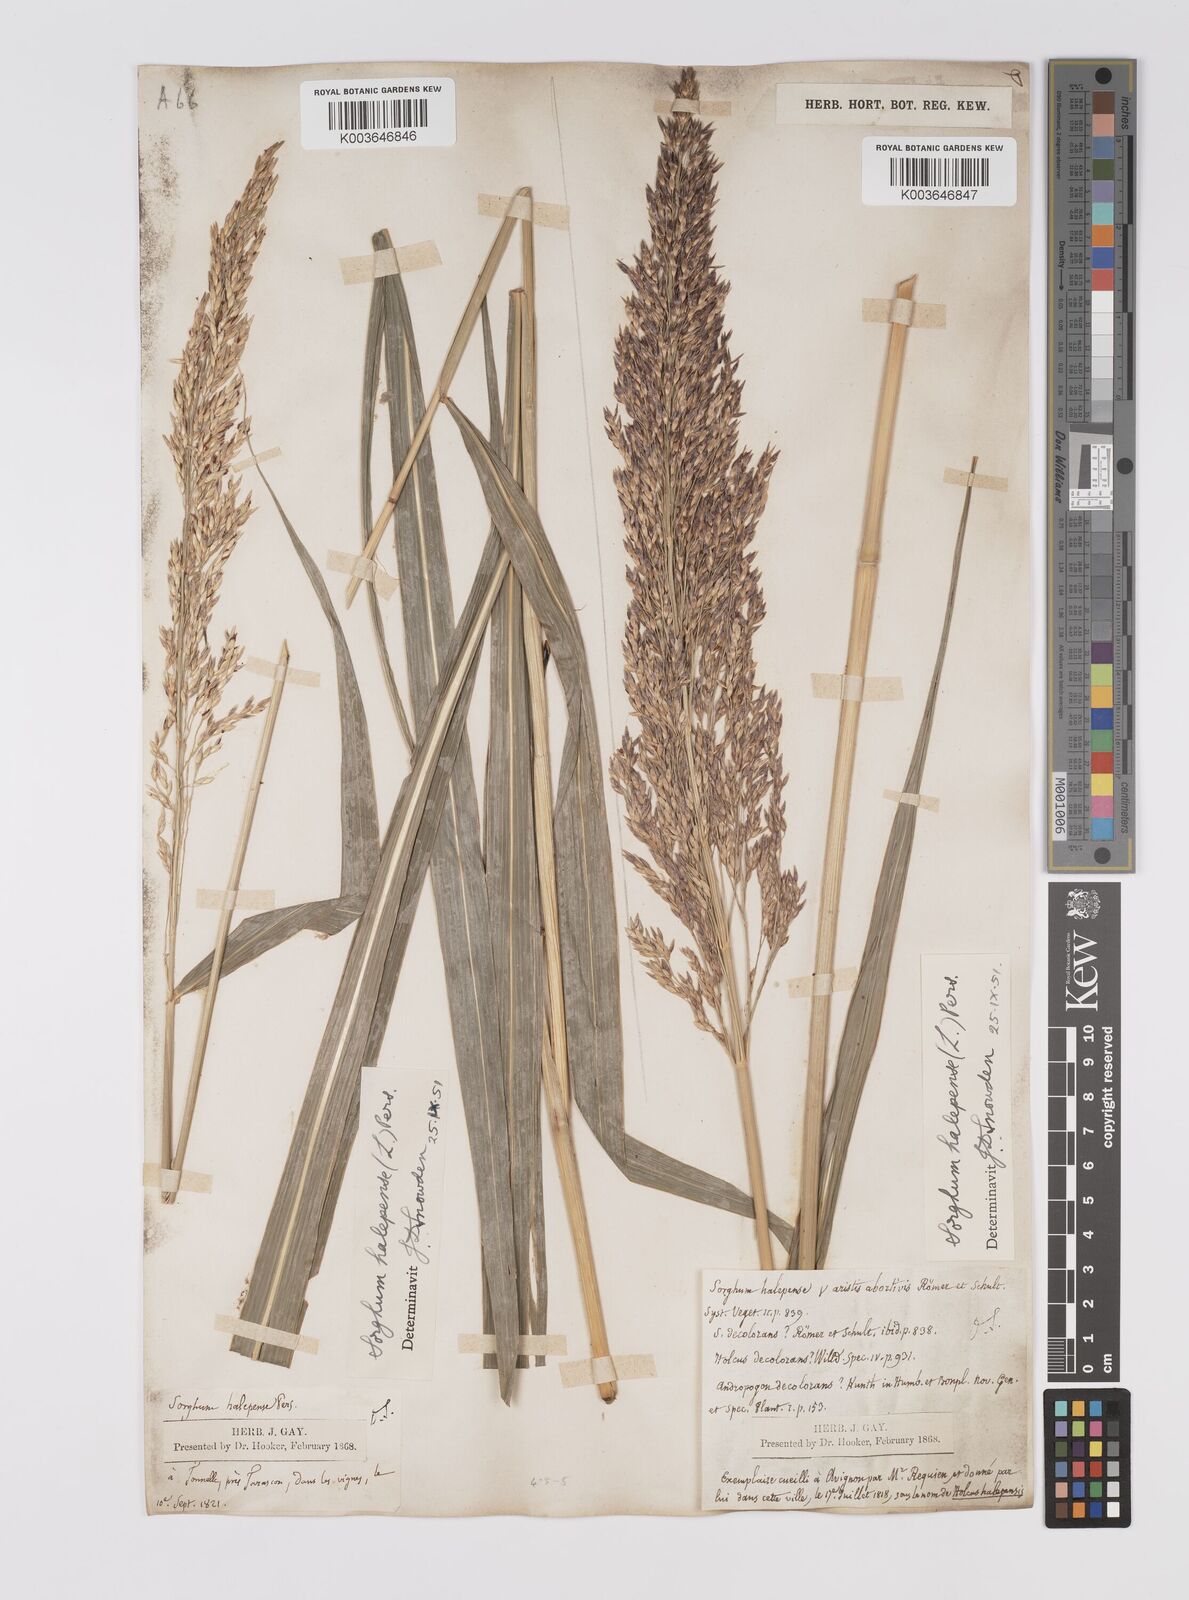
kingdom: Plantae
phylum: Tracheophyta
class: Liliopsida
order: Poales
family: Poaceae
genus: Sorghum
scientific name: Sorghum halepense
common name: Johnson-grass
